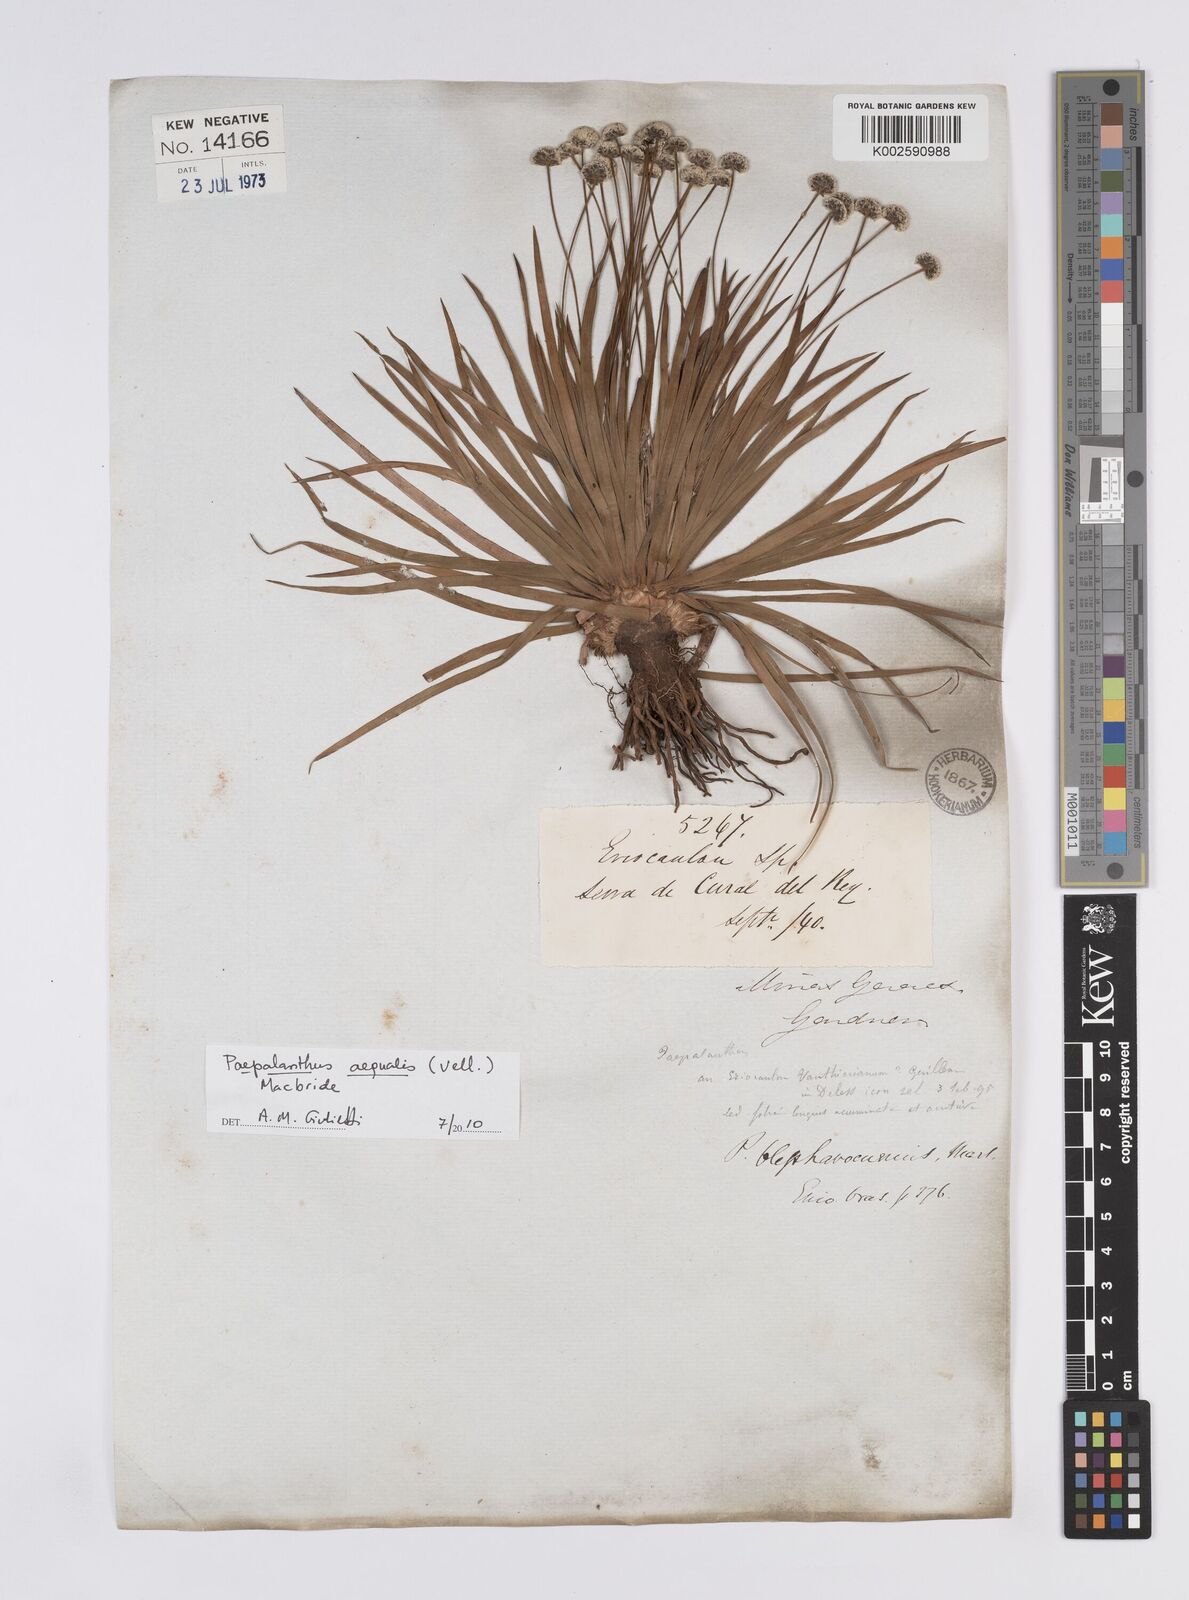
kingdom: Plantae
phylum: Tracheophyta
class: Liliopsida
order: Poales
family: Eriocaulaceae
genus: Paepalanthus
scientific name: Paepalanthus aequalis
